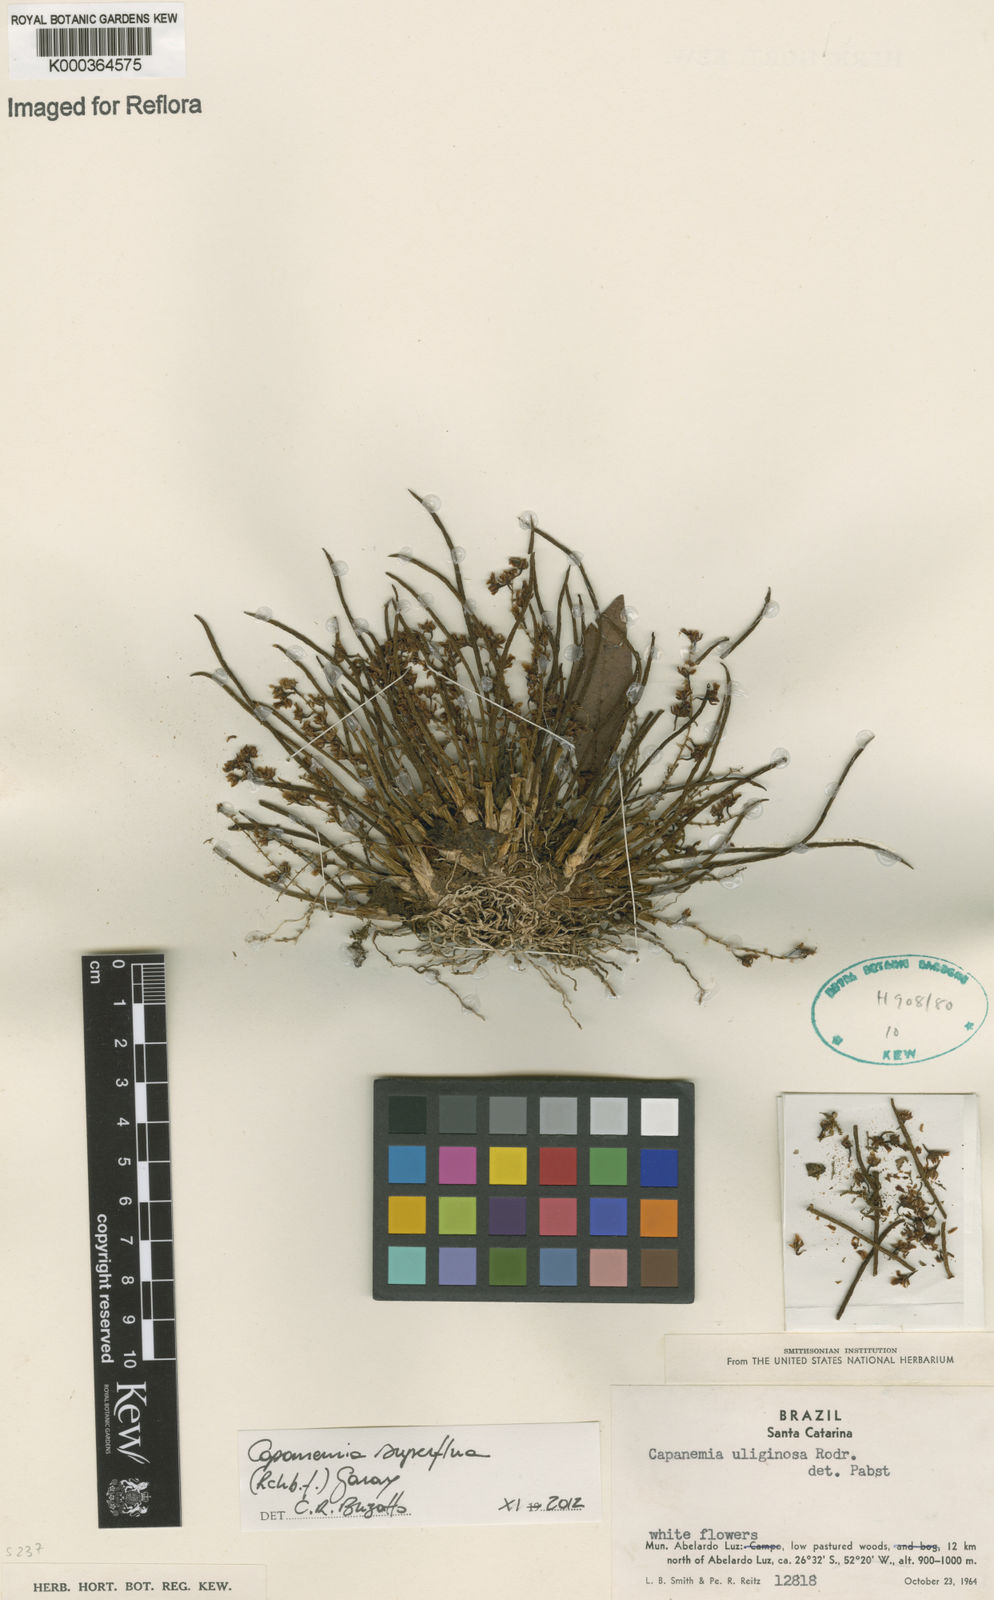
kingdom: Plantae
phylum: Tracheophyta
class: Liliopsida
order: Asparagales
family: Orchidaceae
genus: Capanemia
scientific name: Capanemia superflua
